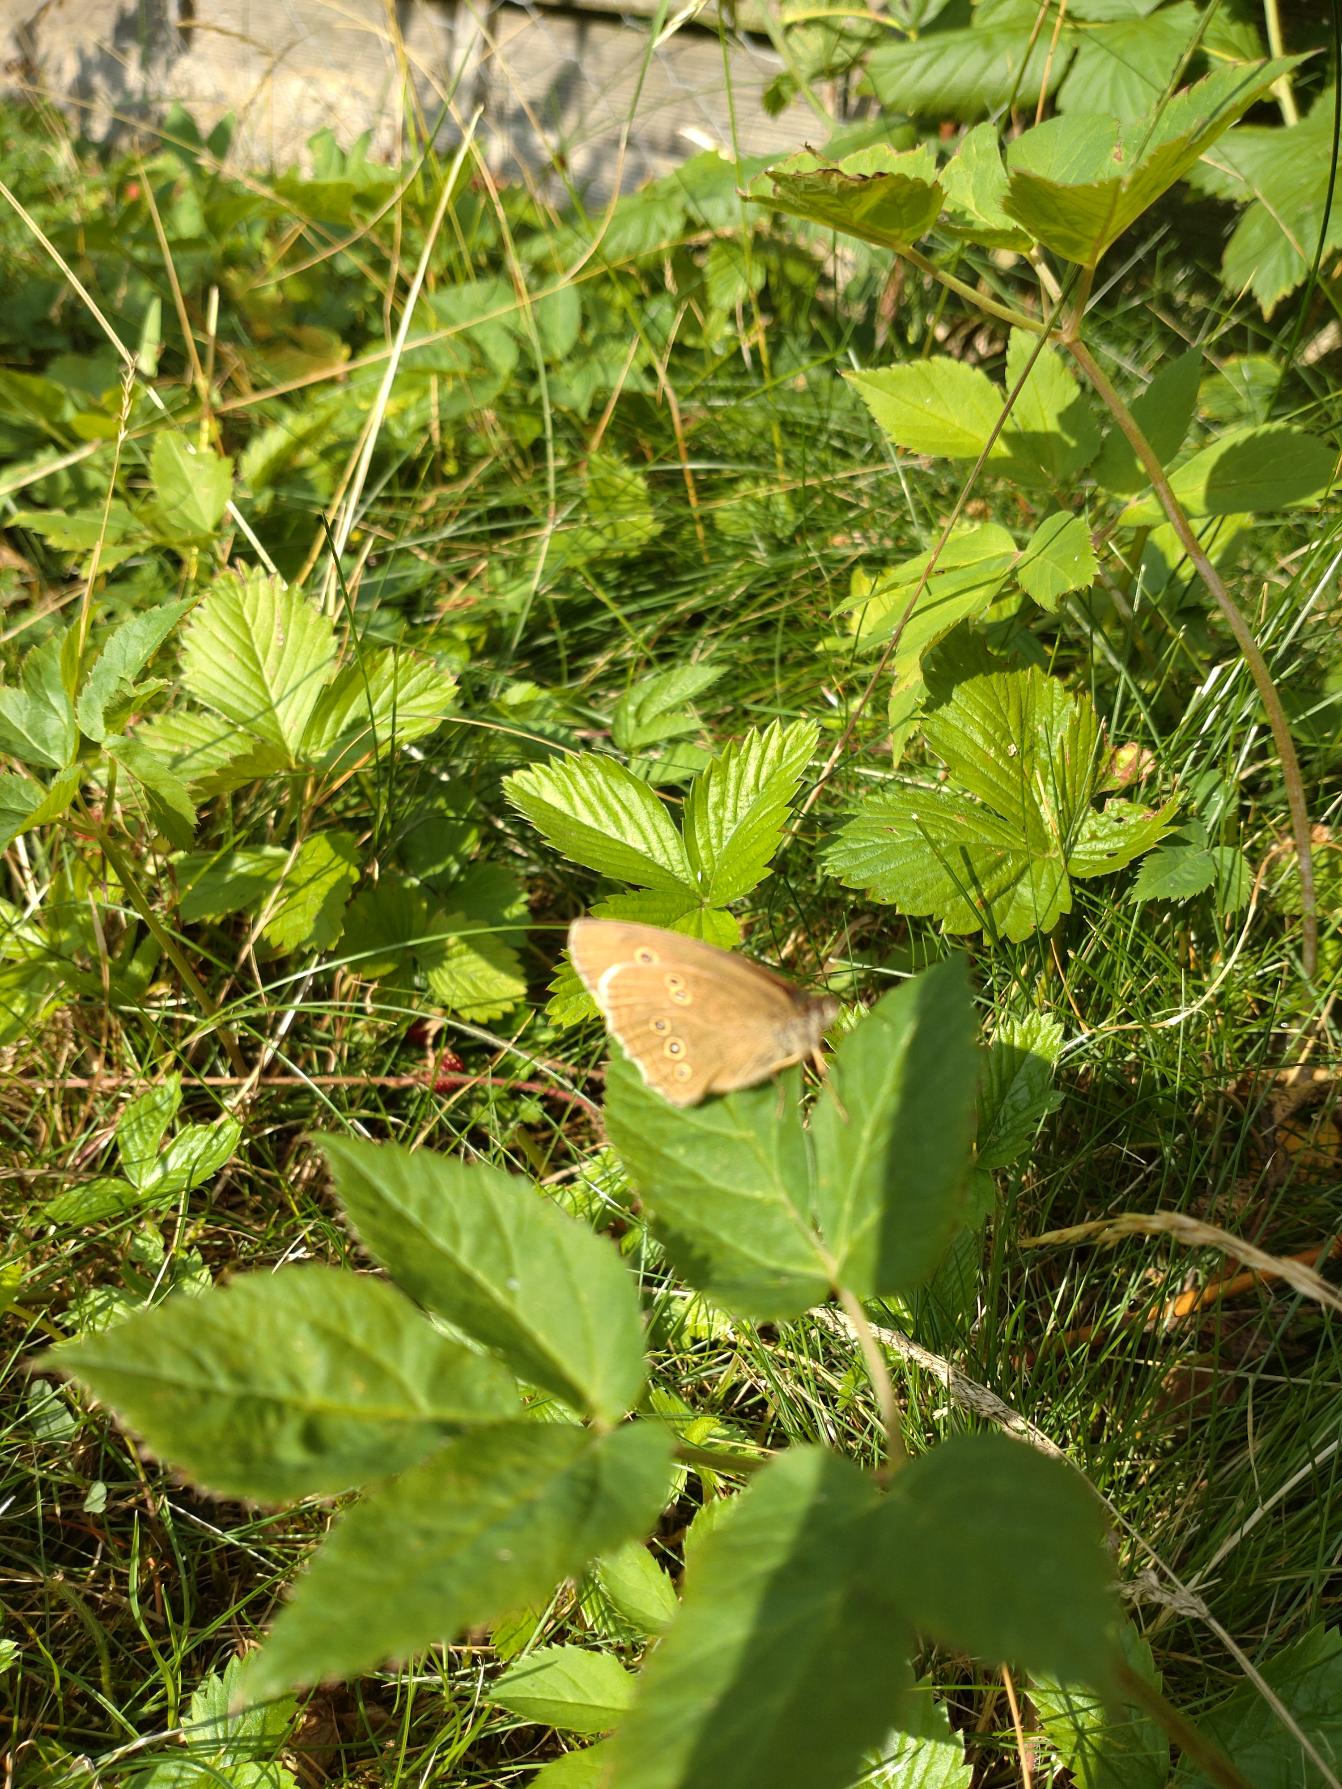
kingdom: Animalia
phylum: Arthropoda
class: Insecta
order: Lepidoptera
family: Nymphalidae
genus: Aphantopus
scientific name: Aphantopus hyperantus
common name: Engrandøje
